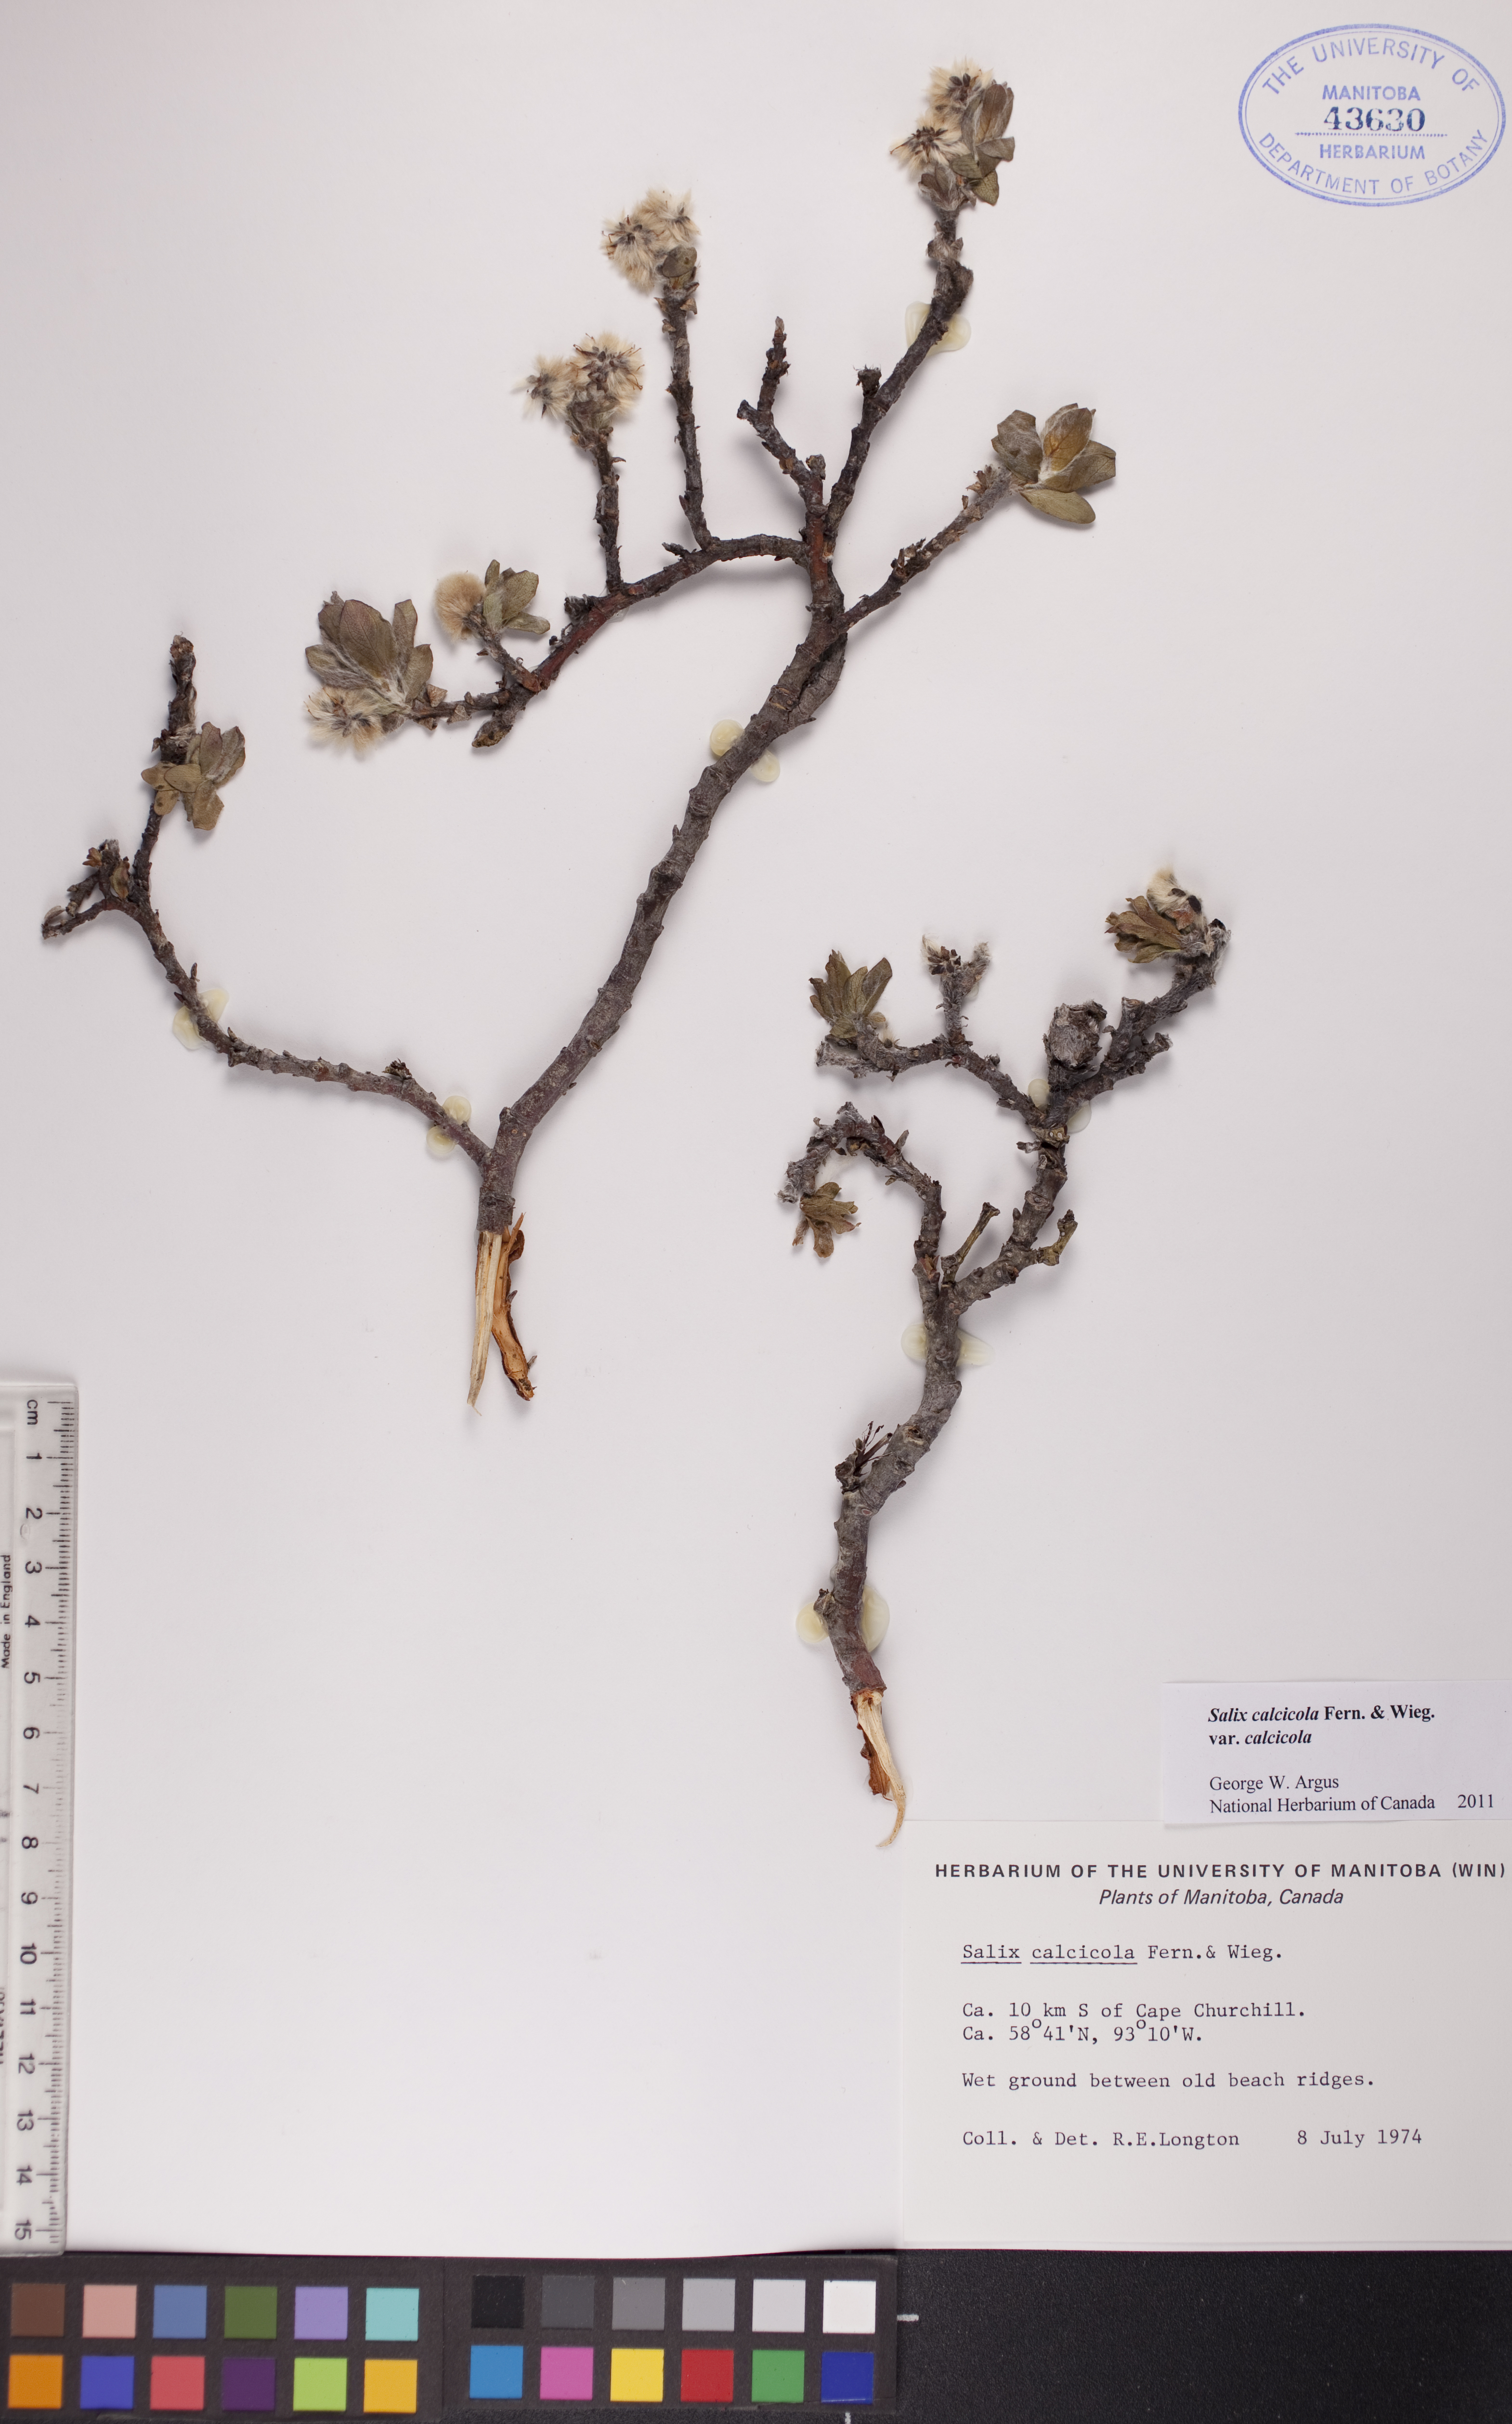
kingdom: Plantae
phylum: Tracheophyta
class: Magnoliopsida
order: Malpighiales
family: Salicaceae
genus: Salix
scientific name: Salix calcicola
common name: Calcareous willow
